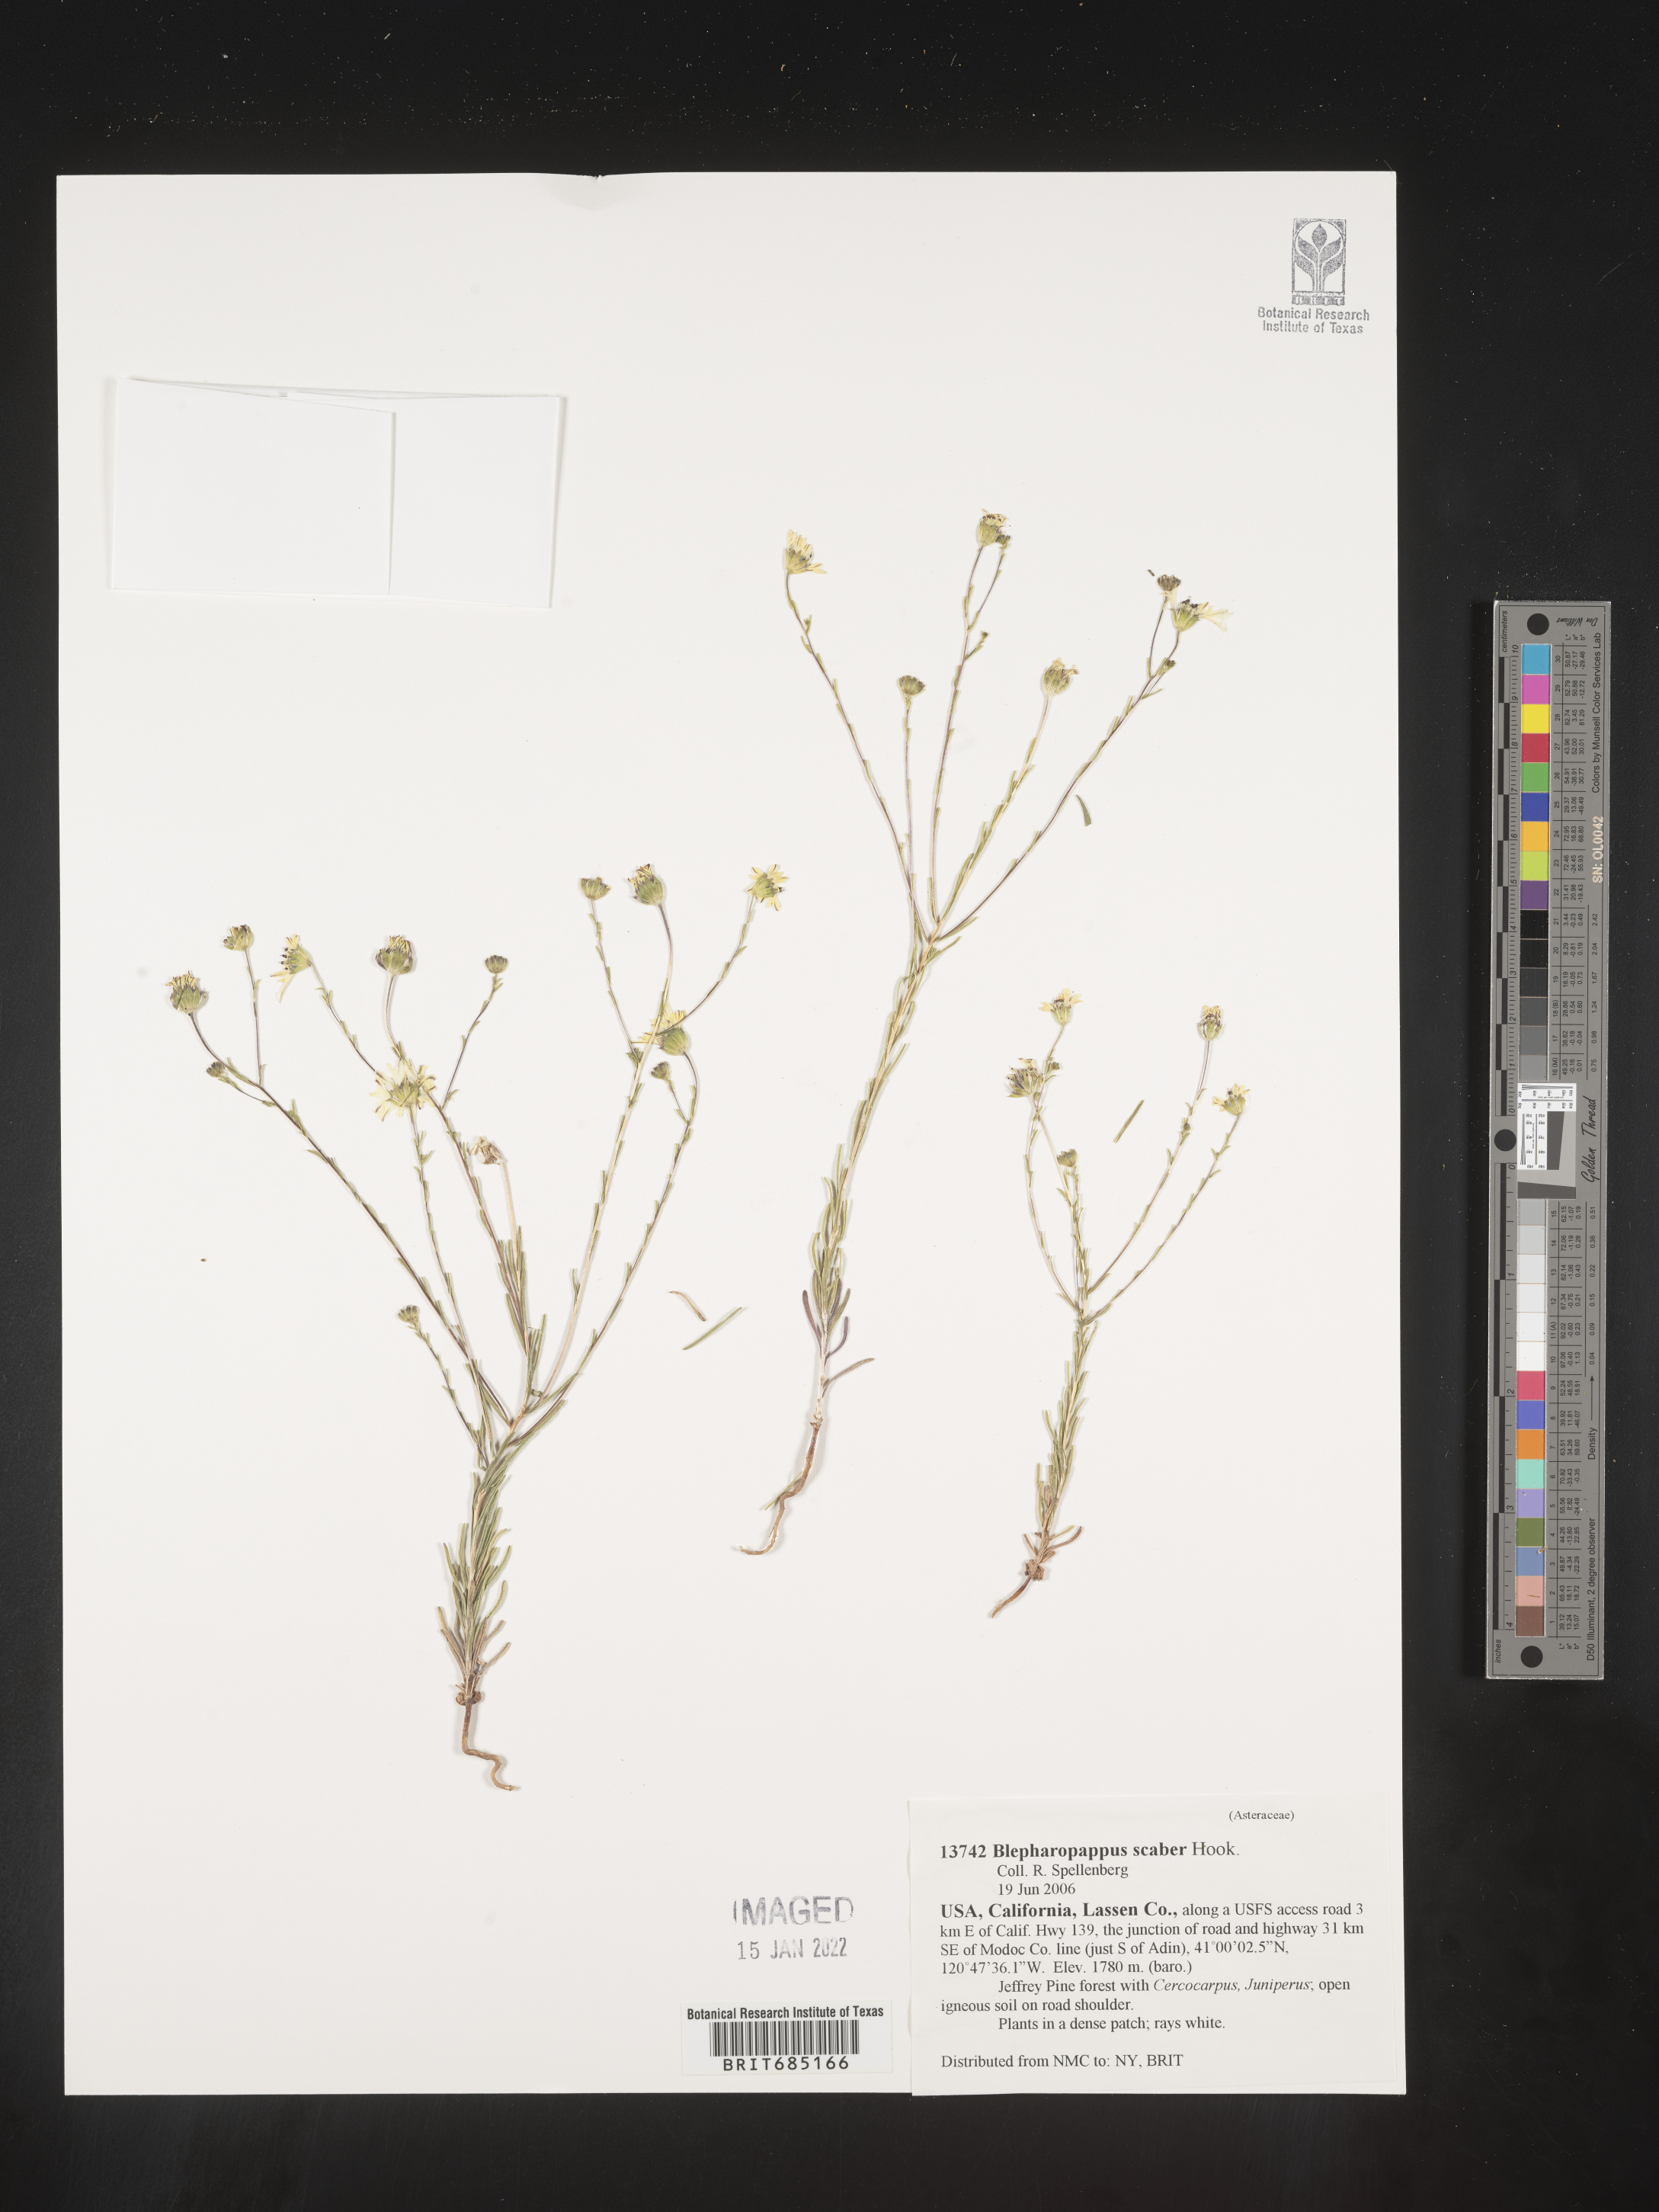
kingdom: Plantae
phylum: Tracheophyta
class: Magnoliopsida
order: Asterales
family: Asteraceae
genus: Blepharipappus
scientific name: Blepharipappus
